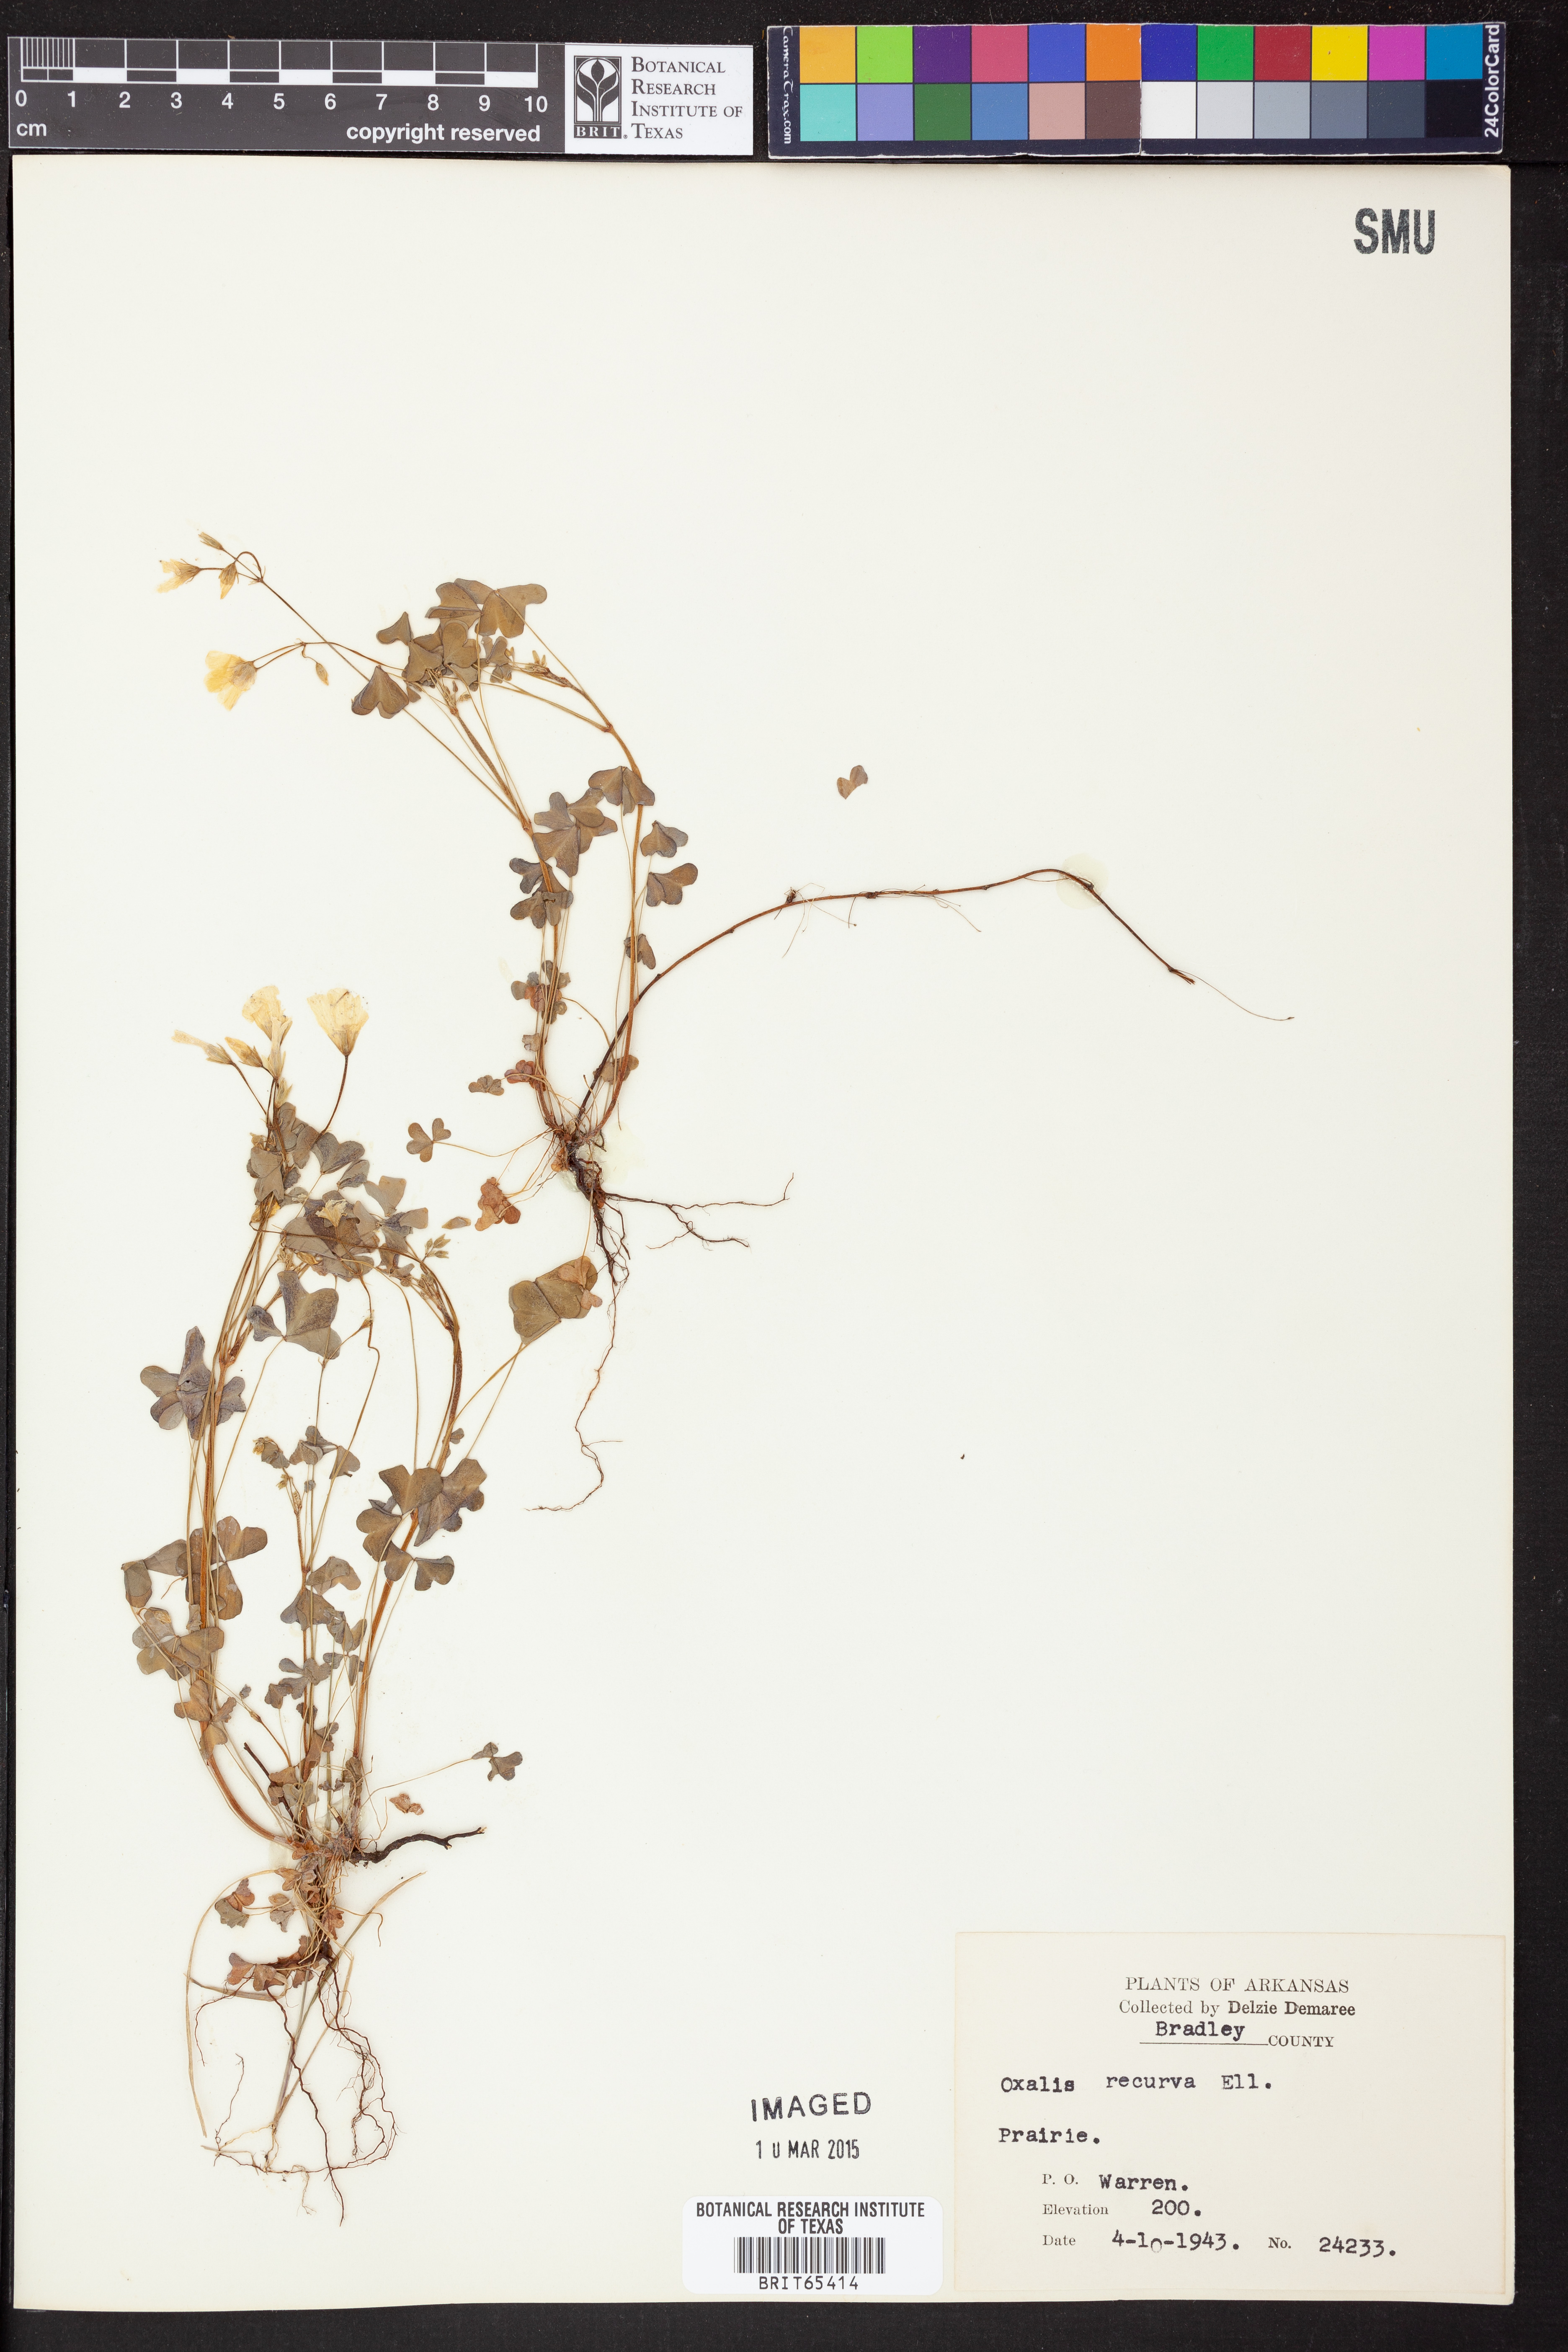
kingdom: Plantae
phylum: Tracheophyta
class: Magnoliopsida
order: Oxalidales
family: Oxalidaceae
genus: Oxalis
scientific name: Oxalis florida
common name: Flowering yellow woodsorrel
